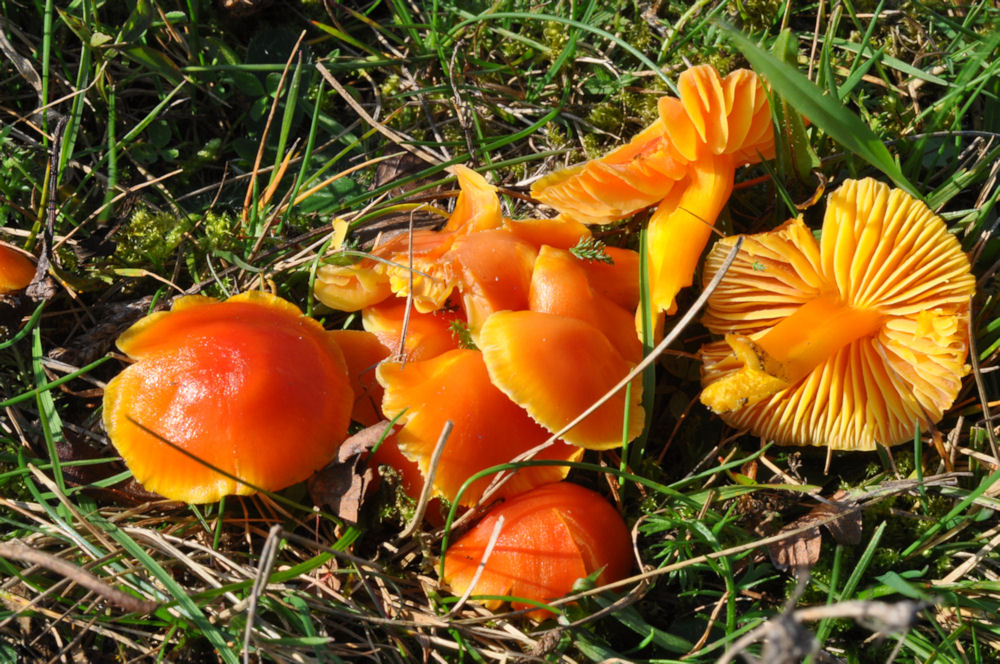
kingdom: Fungi
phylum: Basidiomycota
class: Agaricomycetes
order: Agaricales
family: Hygrophoraceae
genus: Hygrocybe
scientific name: Hygrocybe ceracea
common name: voksgul vokshat
